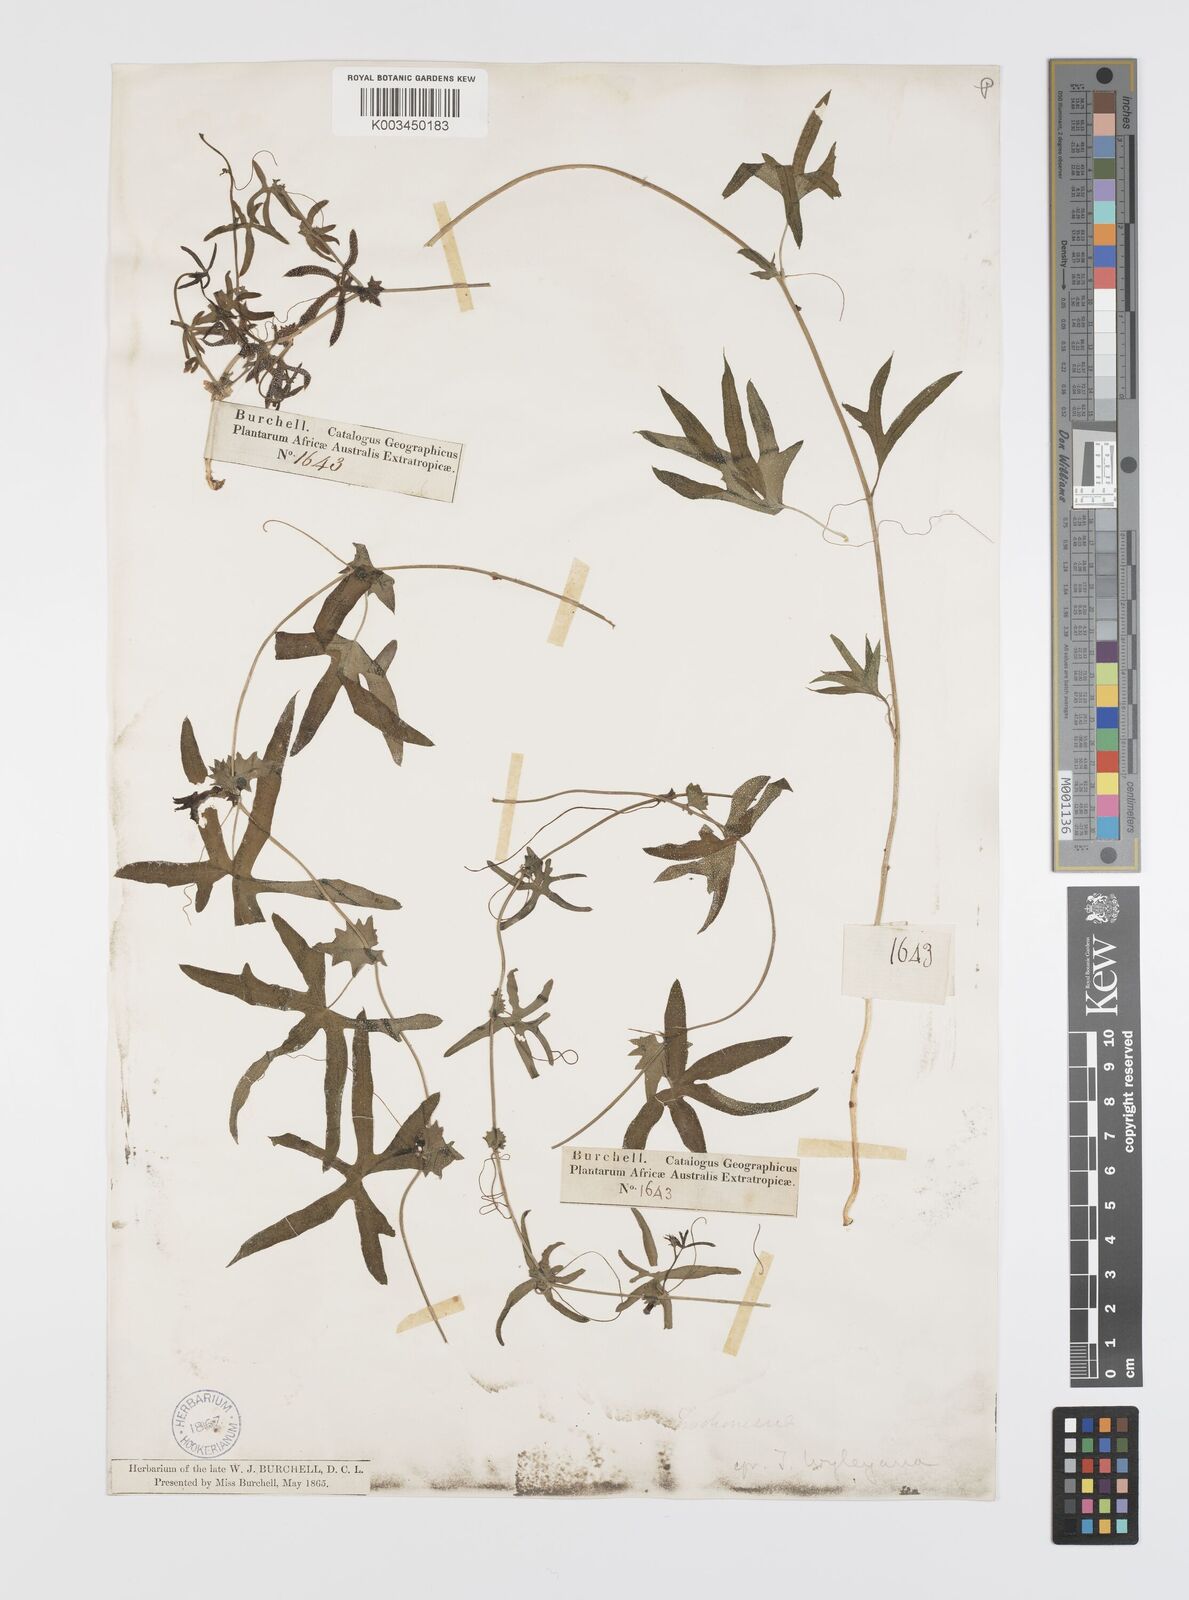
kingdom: Plantae
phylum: Tracheophyta
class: Magnoliopsida
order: Cucurbitales
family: Cucurbitaceae
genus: Trochomeria
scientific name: Trochomeria debilis
